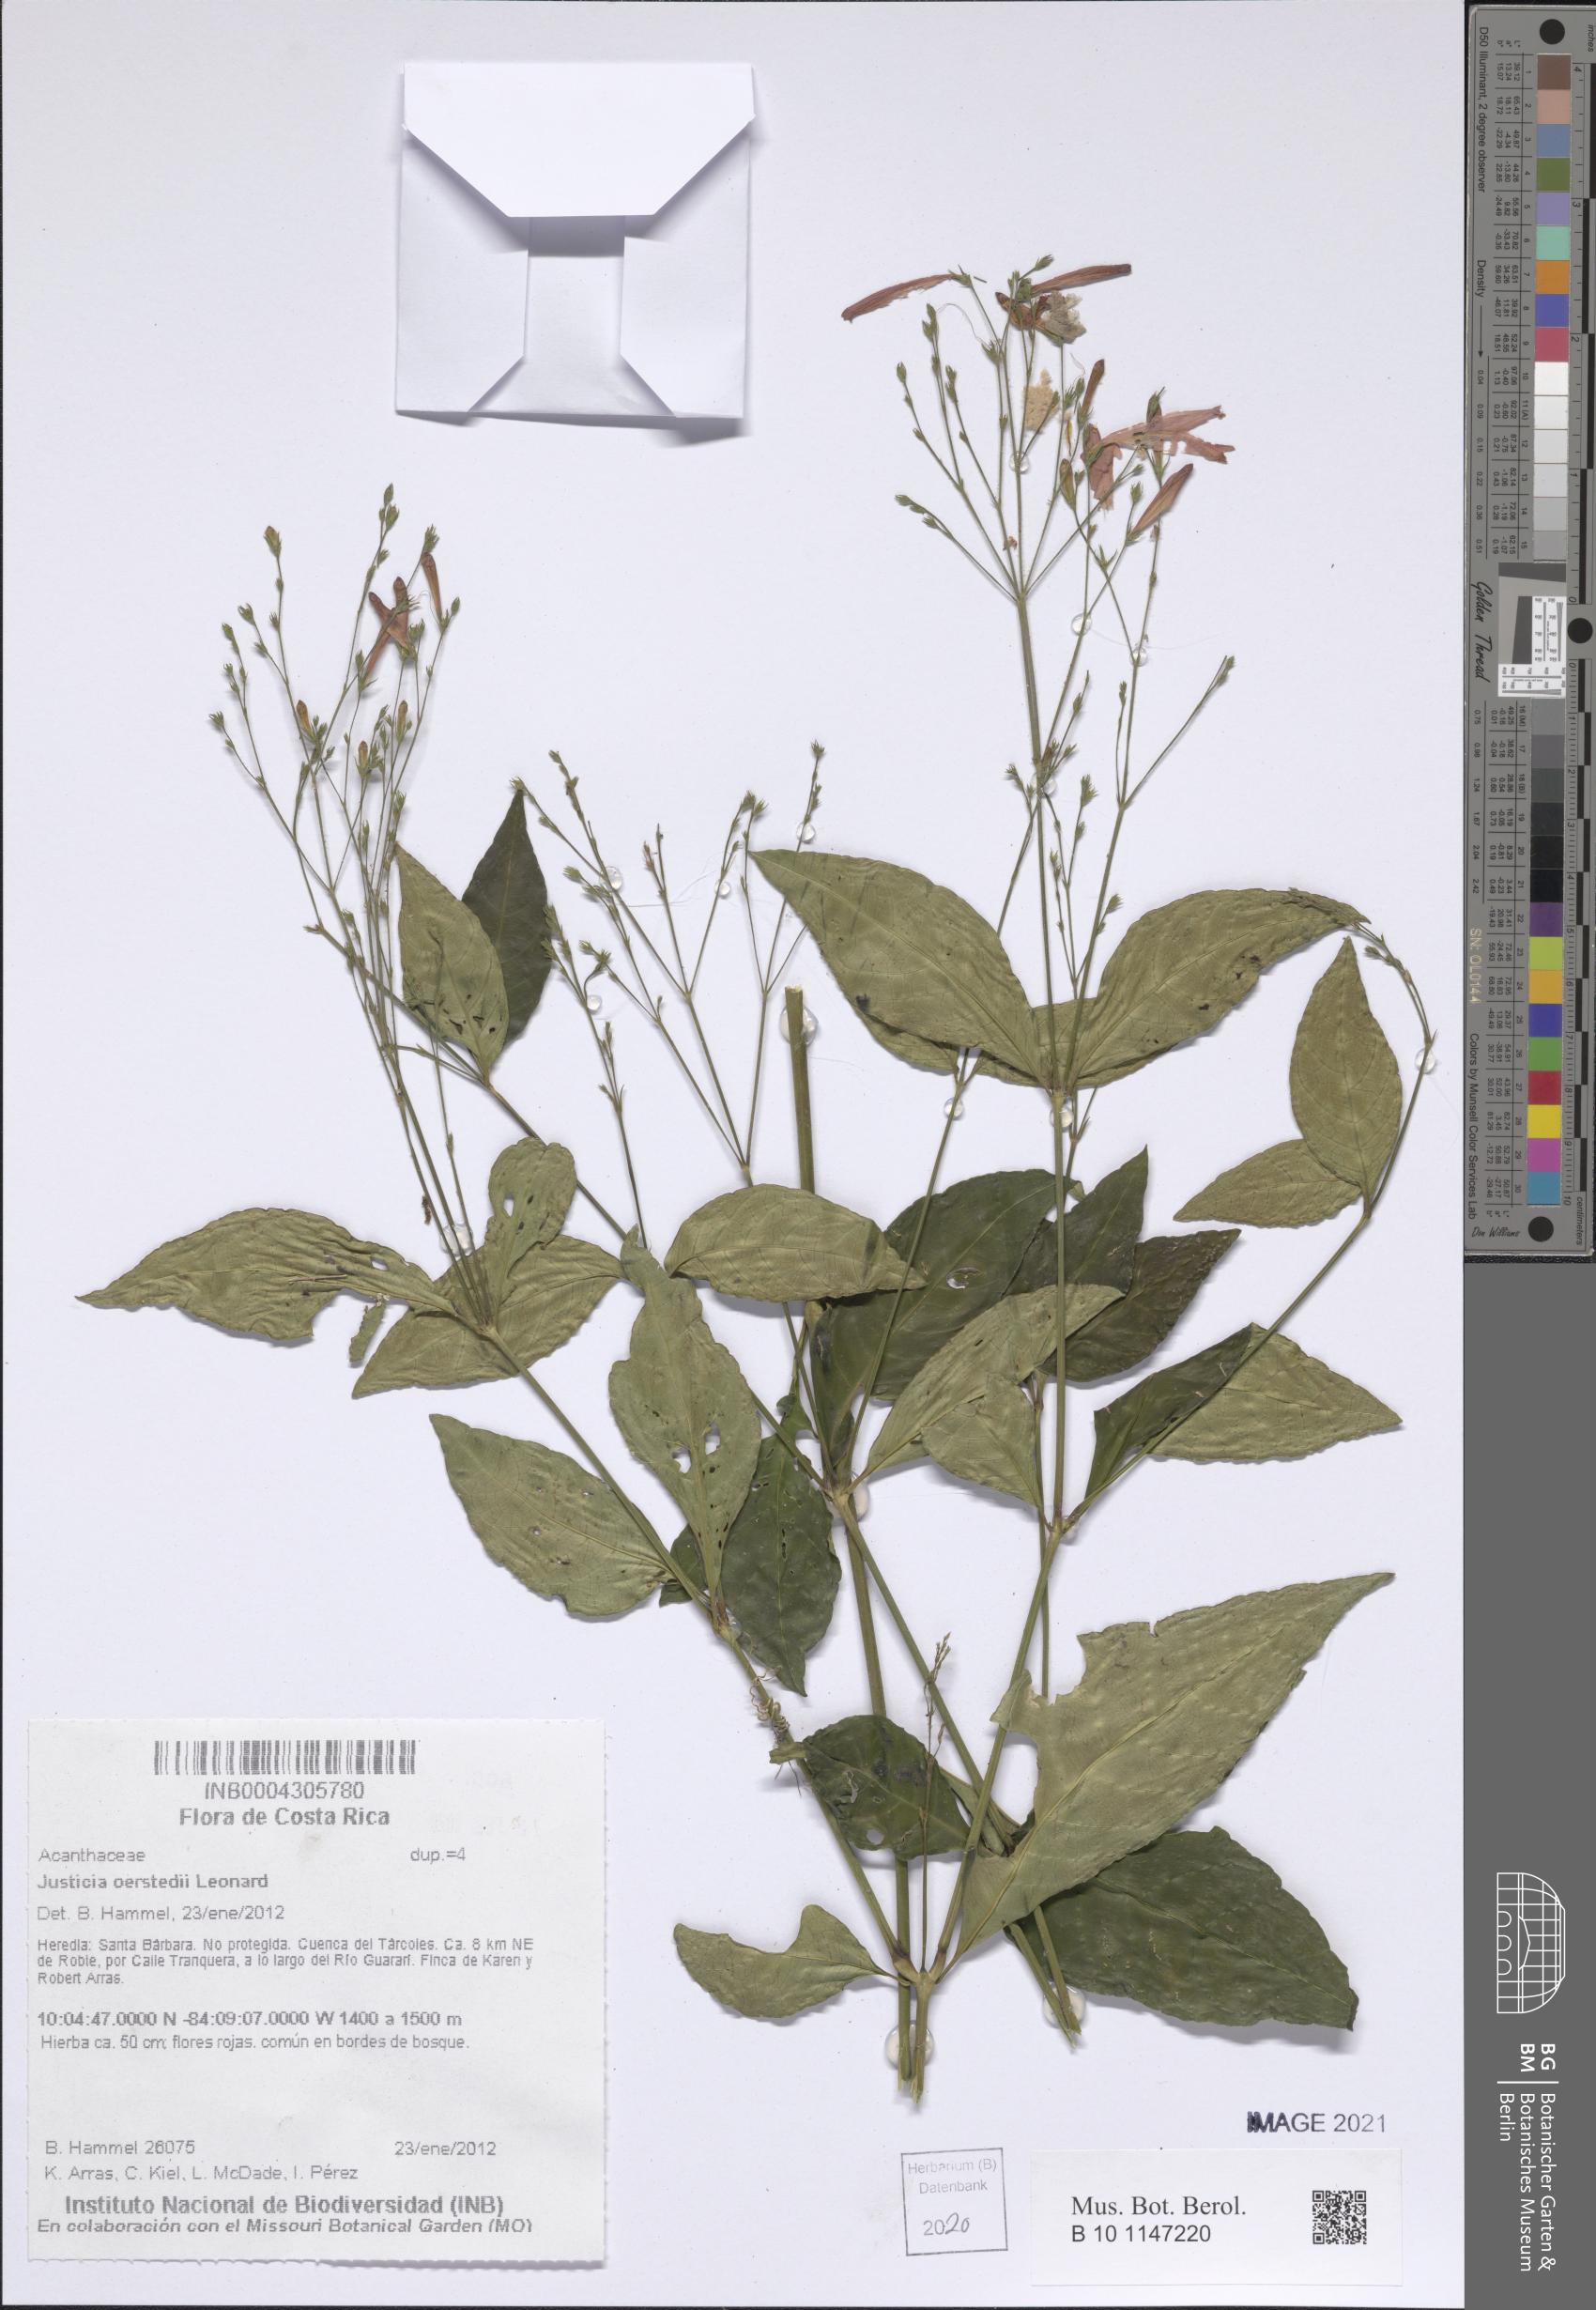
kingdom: Plantae
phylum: Tracheophyta
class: Magnoliopsida
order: Lamiales
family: Acanthaceae
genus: Dianthera
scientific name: Dianthera glabra
